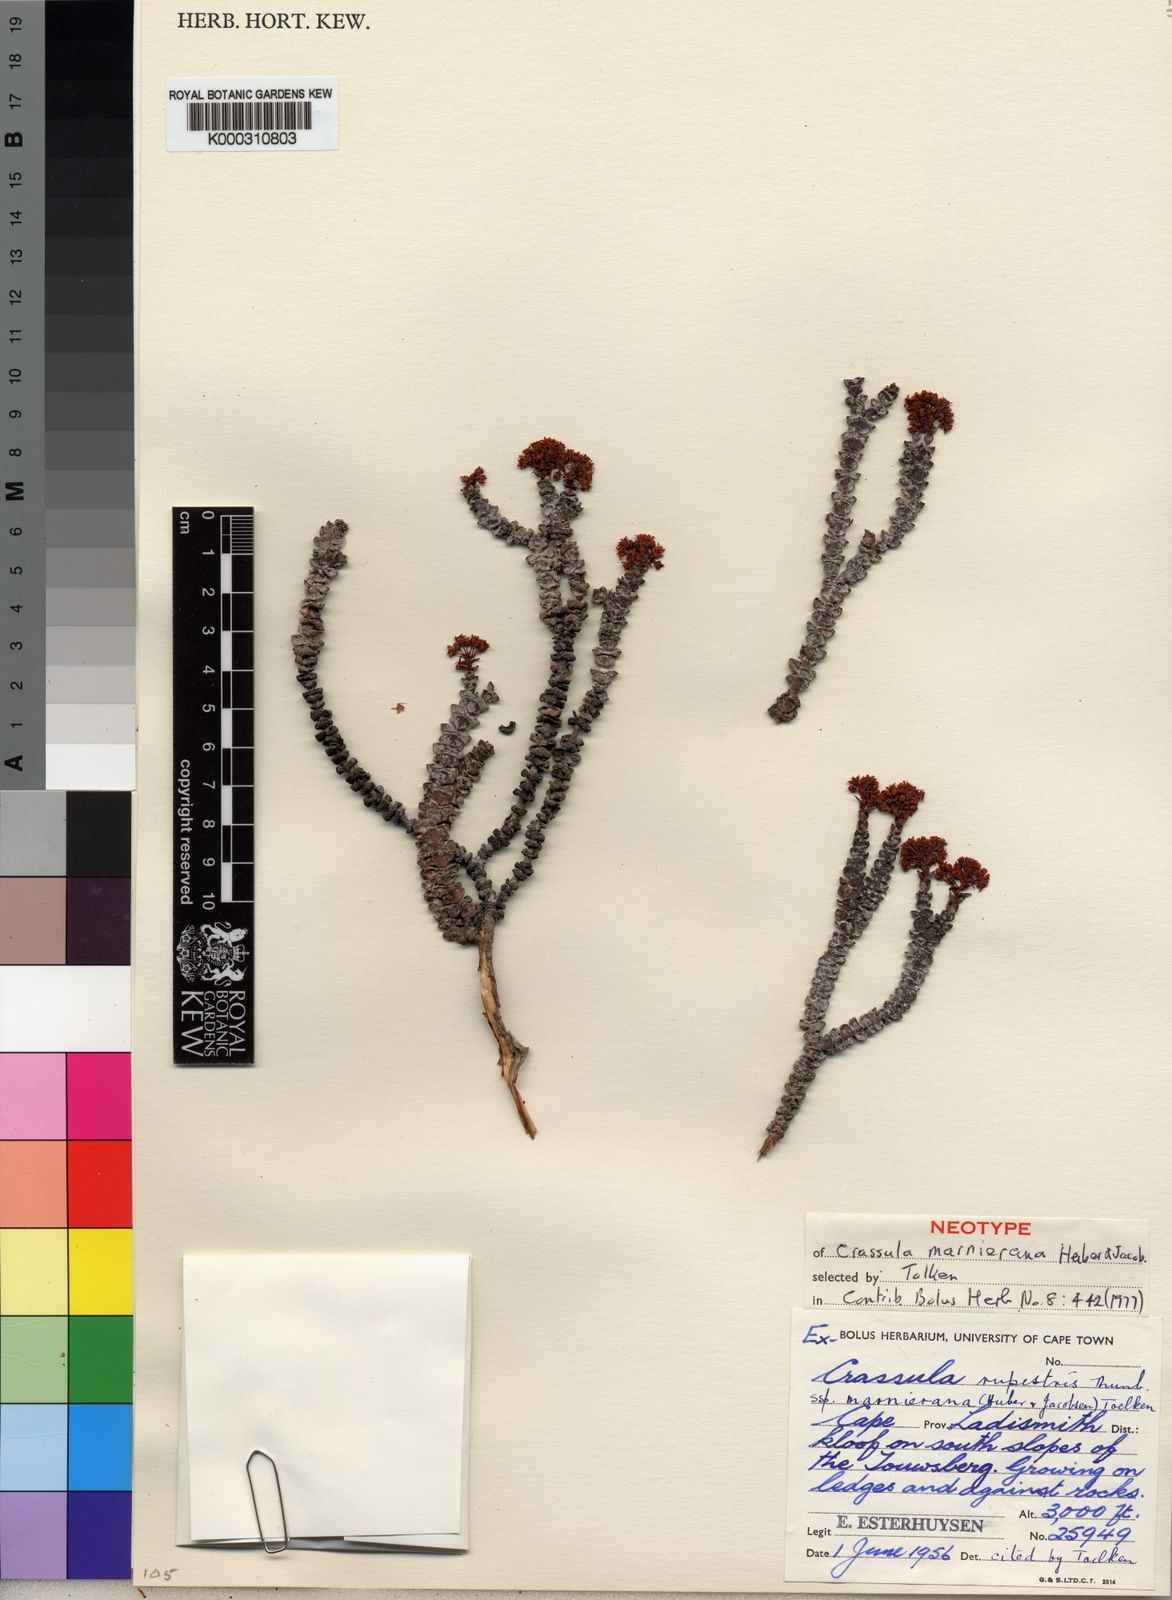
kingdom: Plantae
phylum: Tracheophyta
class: Magnoliopsida
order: Saxifragales
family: Crassulaceae
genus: Crassula
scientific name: Crassula rupestris
